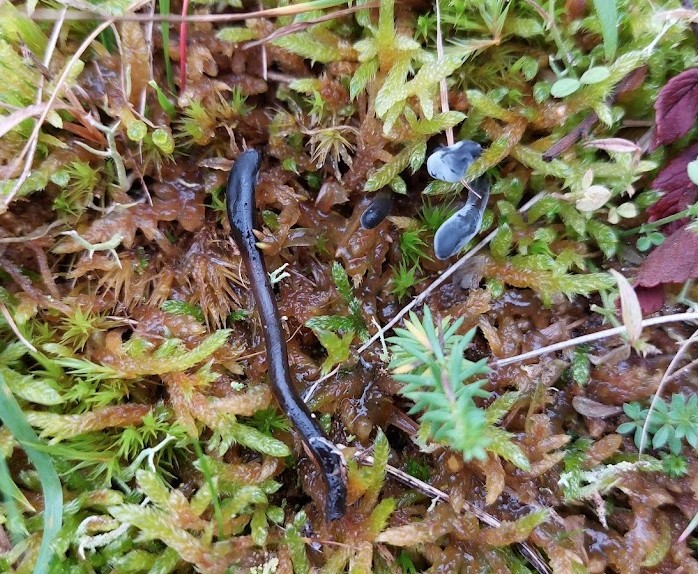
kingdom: Fungi
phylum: Ascomycota
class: Geoglossomycetes
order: Geoglossales
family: Geoglossaceae
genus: Glutinoglossum
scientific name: Glutinoglossum glutinosum
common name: slimet jordtunge
